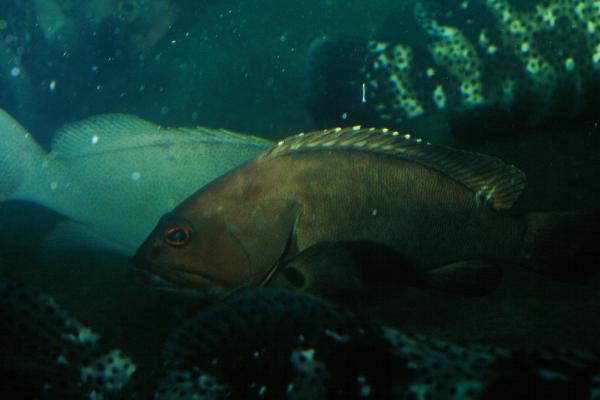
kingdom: Animalia
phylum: Chordata
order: Perciformes
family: Serranidae
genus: Epinephelus
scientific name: Epinephelus rivulatus
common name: Halfmoon grouper
